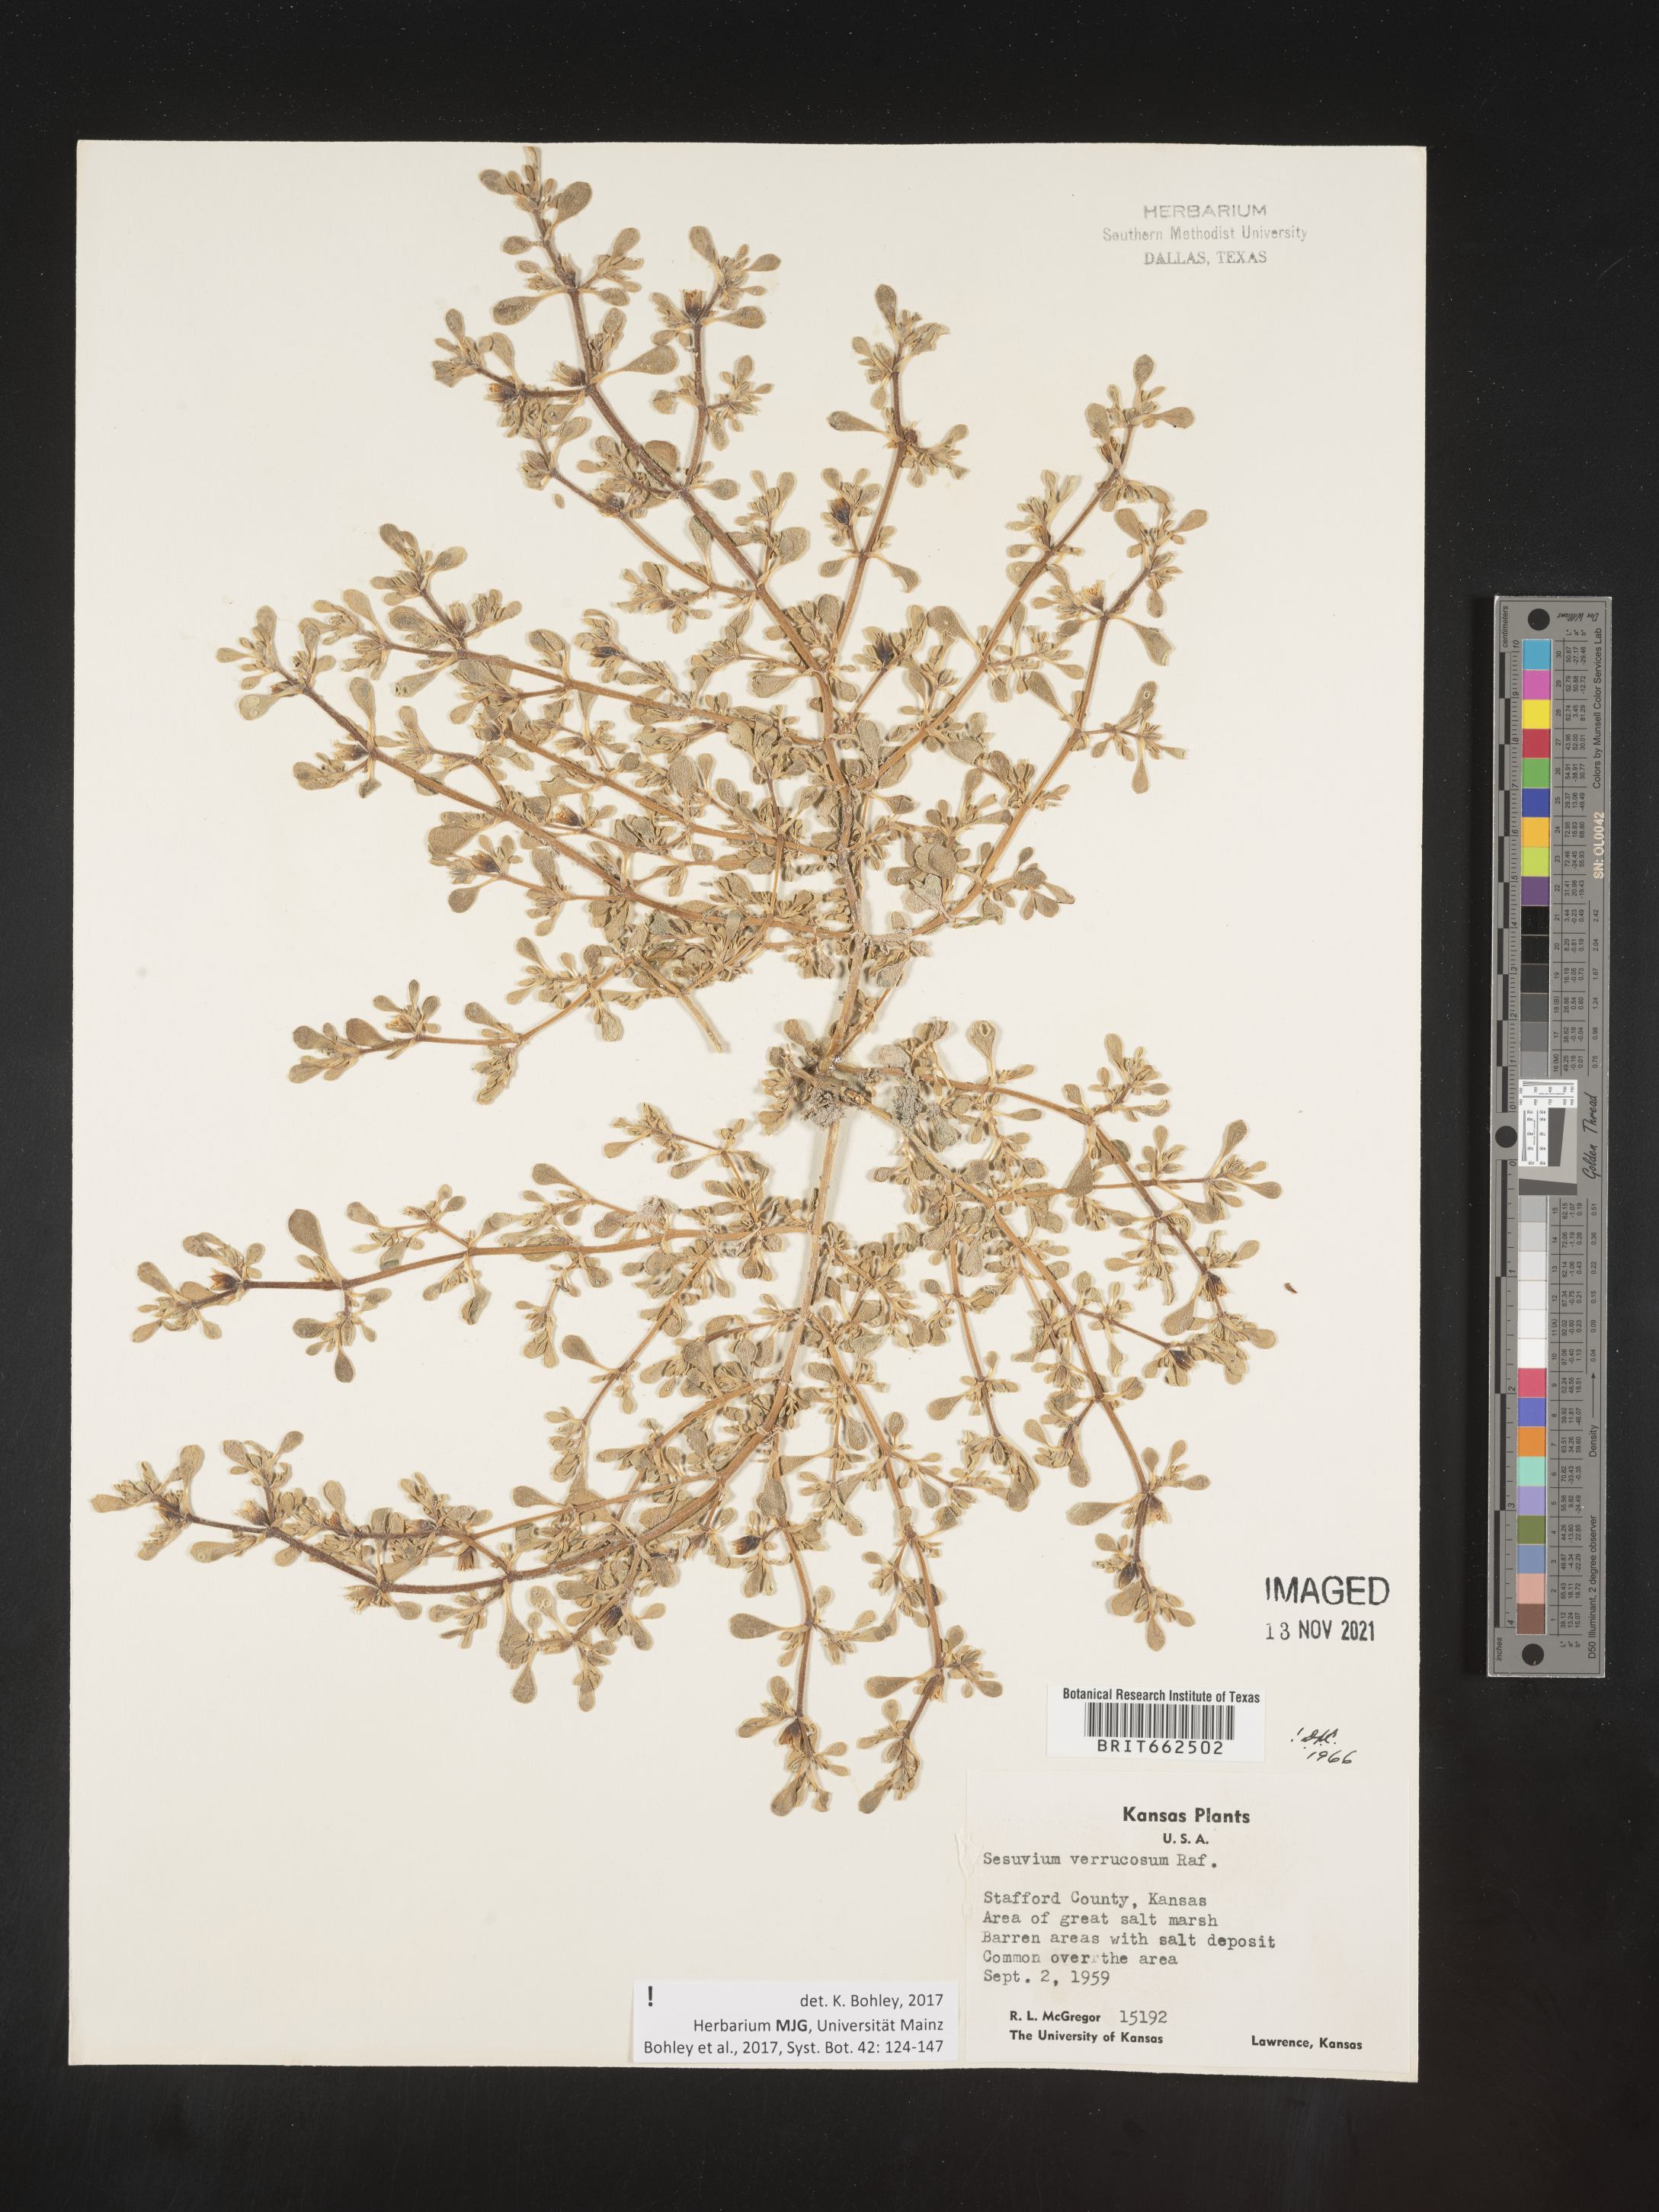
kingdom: Plantae
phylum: Tracheophyta
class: Magnoliopsida
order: Caryophyllales
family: Aizoaceae
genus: Sesuvium
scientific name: Sesuvium
